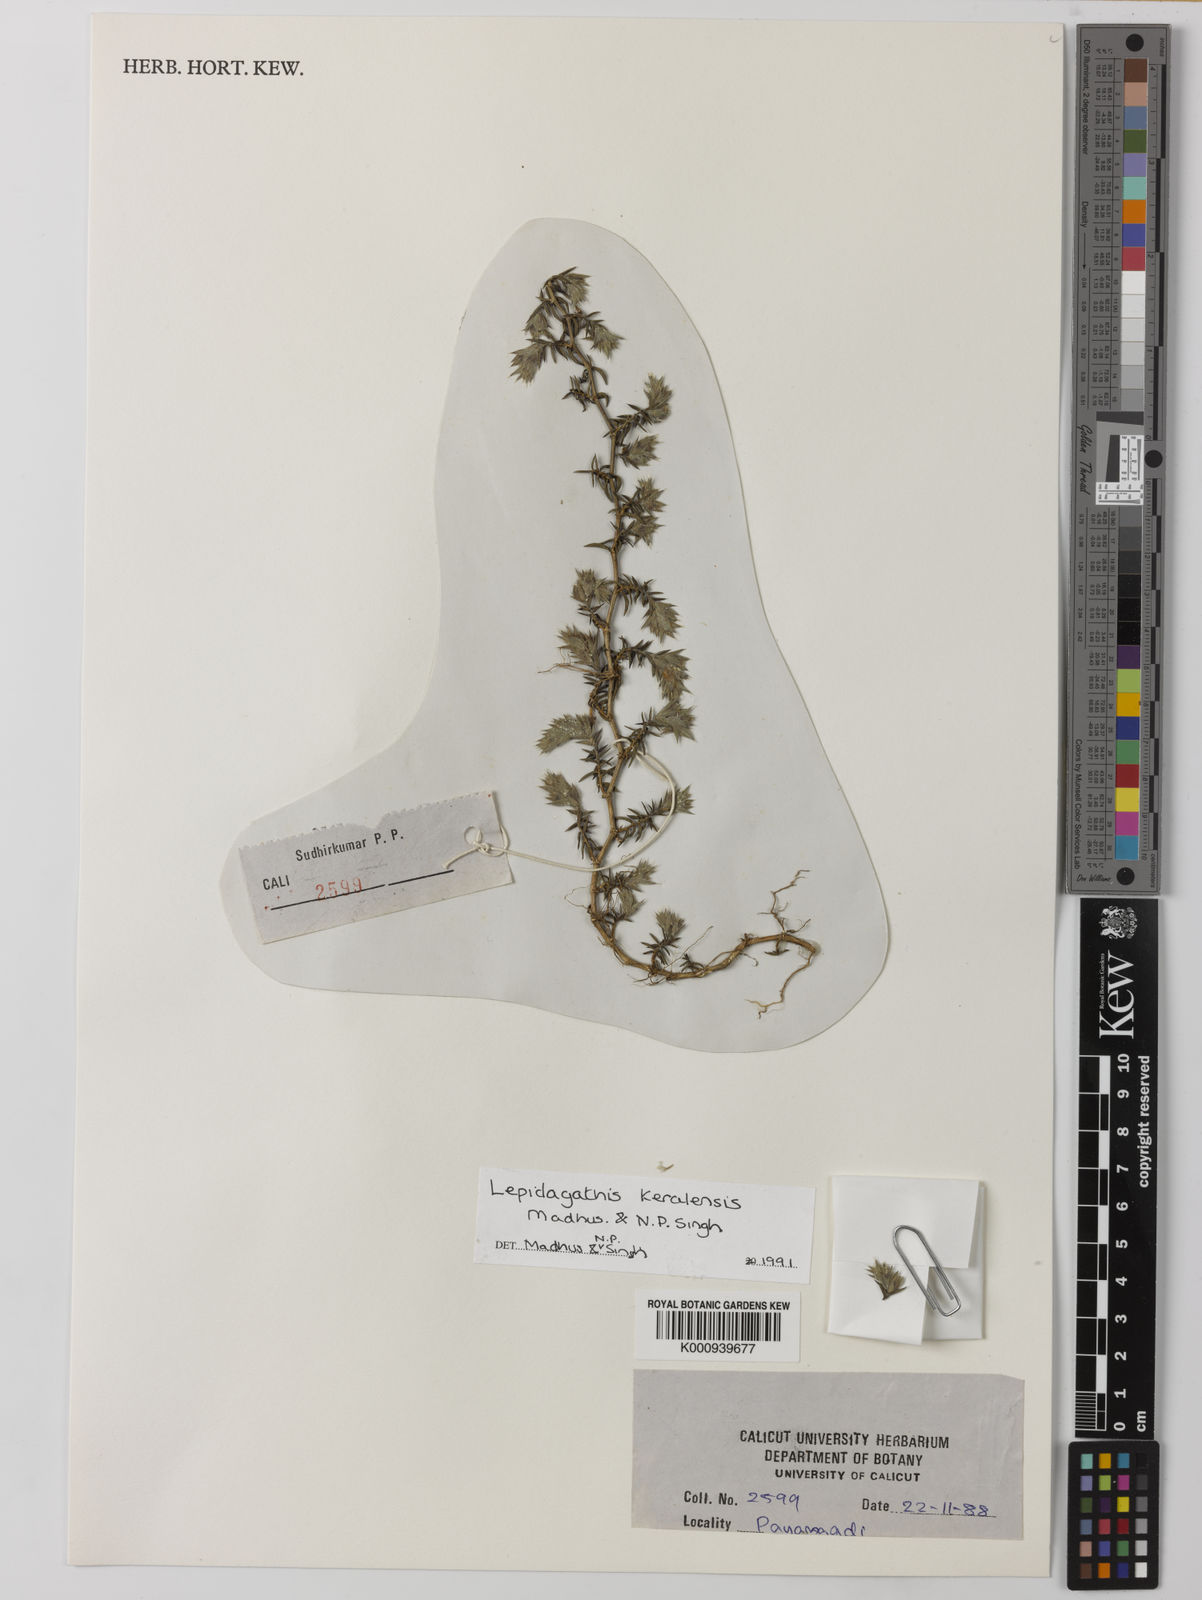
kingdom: Plantae
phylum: Tracheophyta
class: Magnoliopsida
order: Lamiales
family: Acanthaceae
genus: Lepidagathis
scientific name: Lepidagathis keralensis
